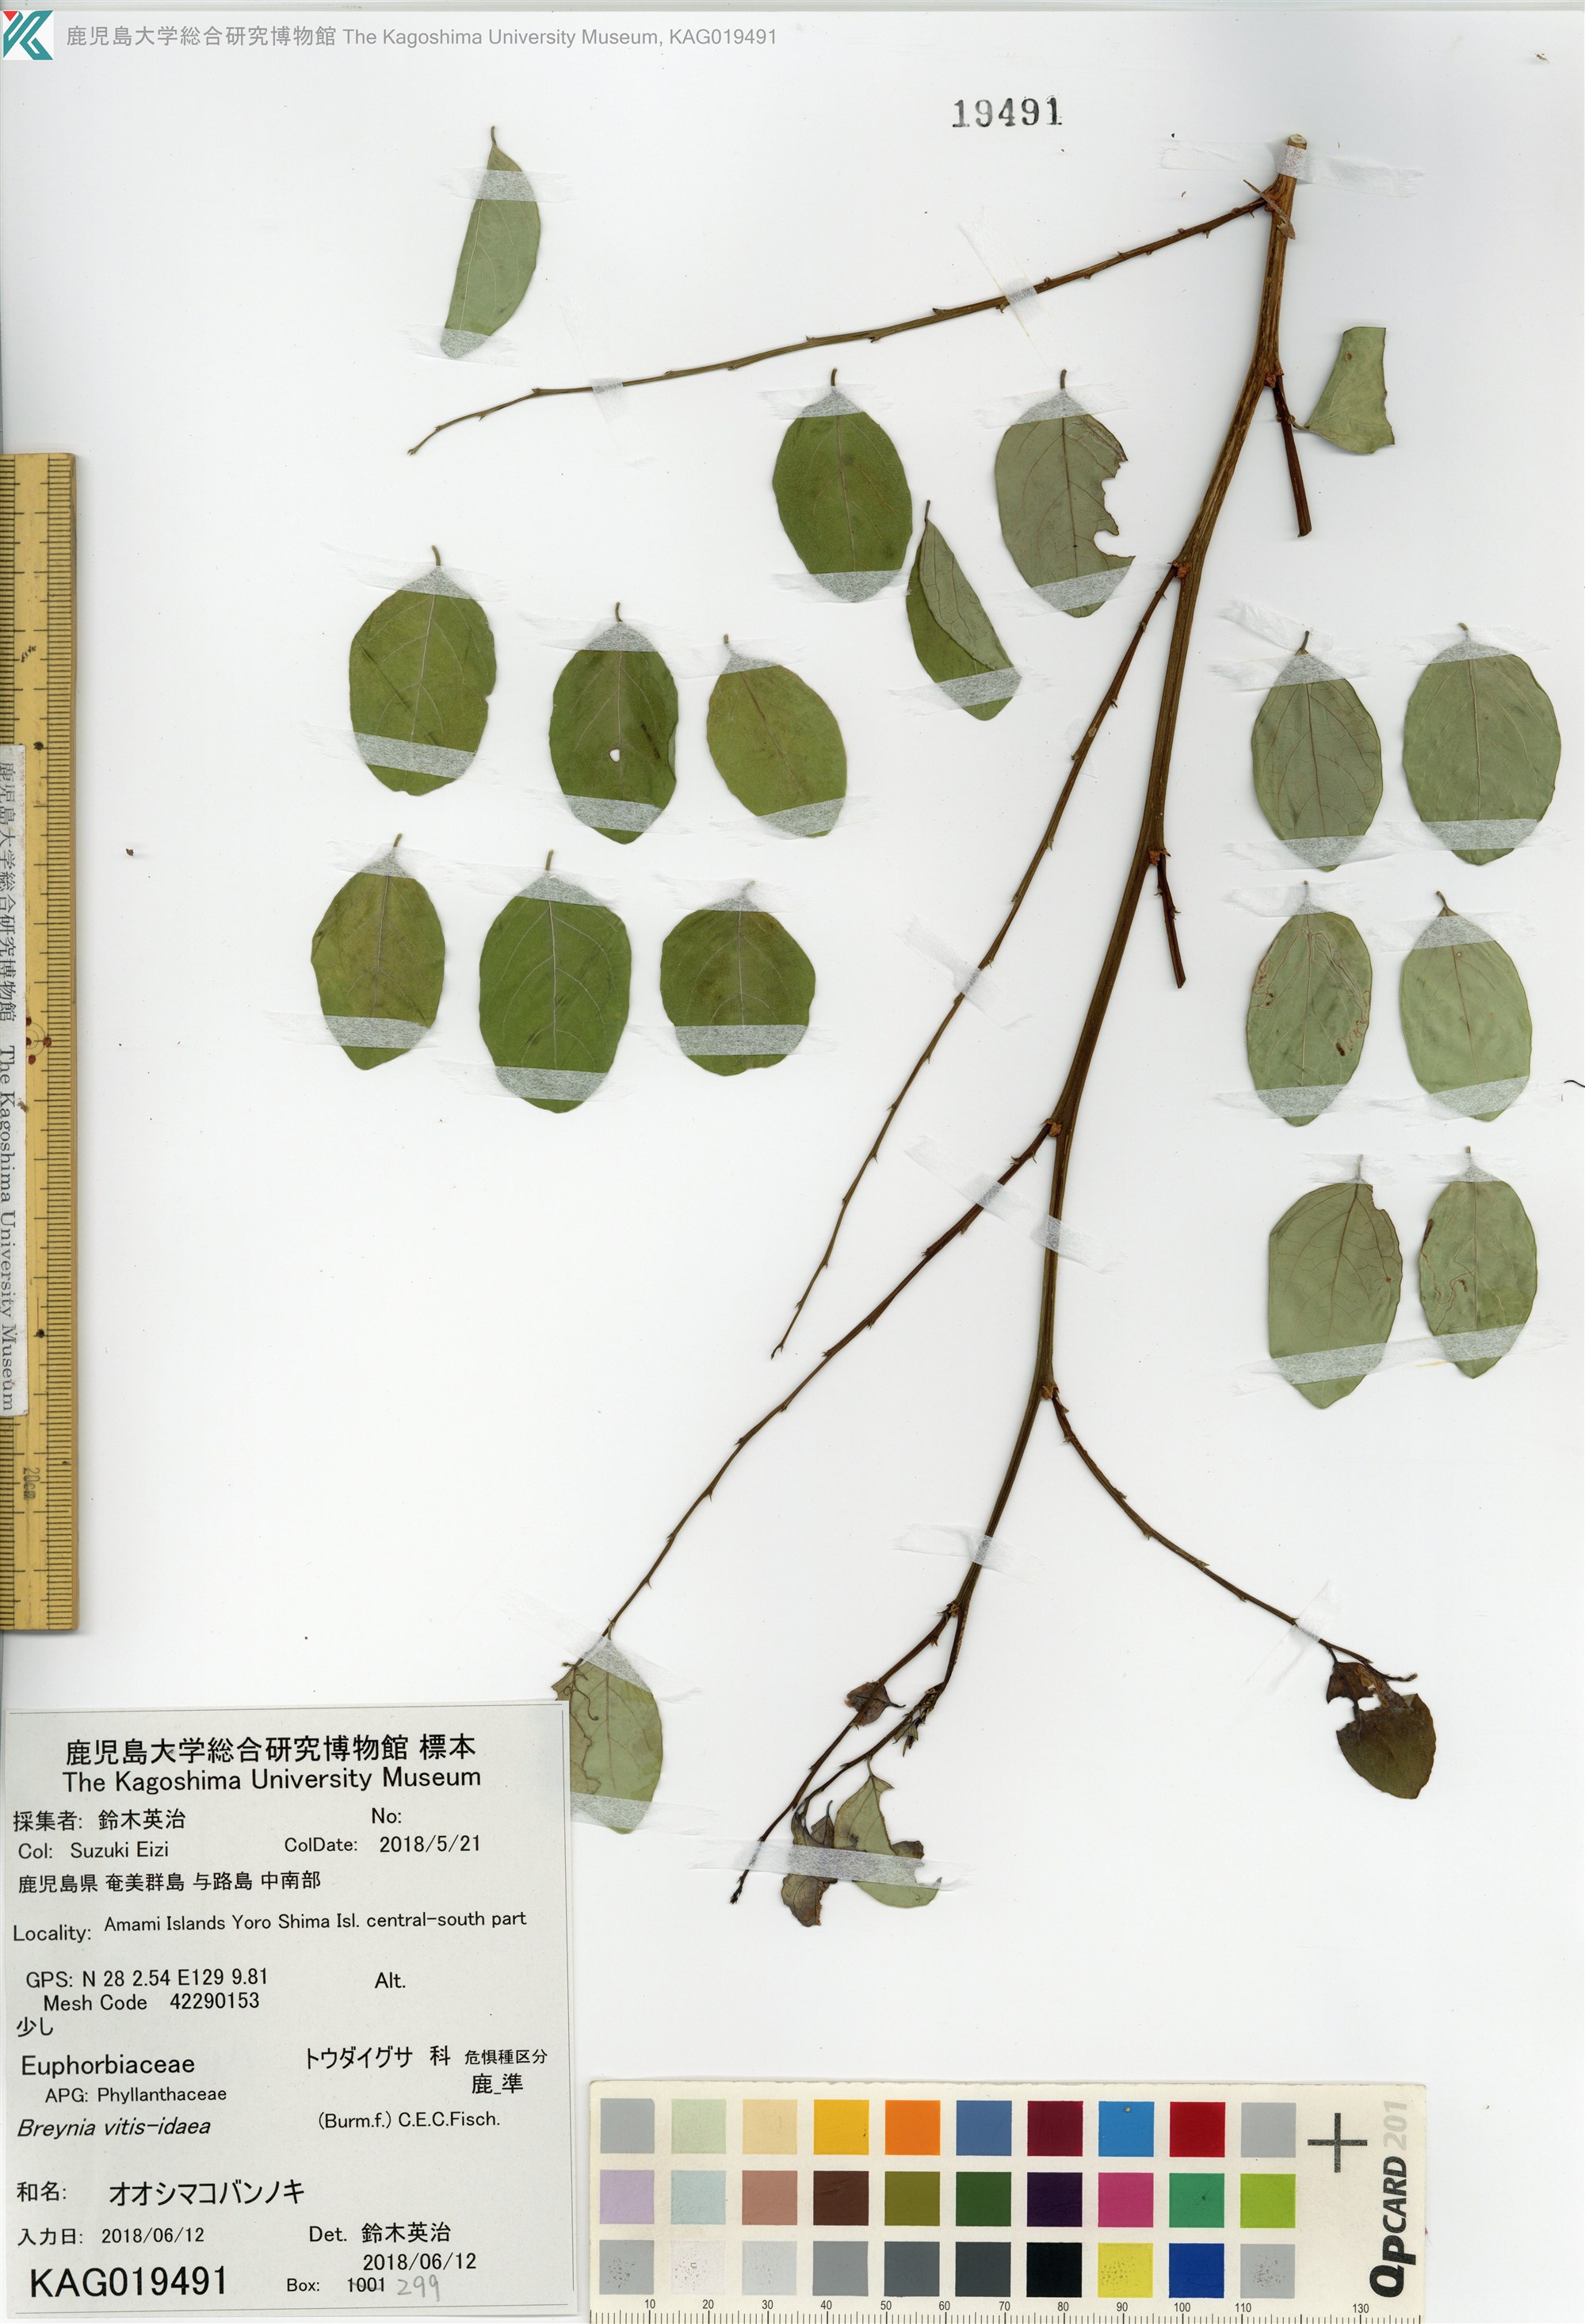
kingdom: Plantae
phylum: Tracheophyta
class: Magnoliopsida
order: Malpighiales
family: Phyllanthaceae
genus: Breynia
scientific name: Breynia officinalis
